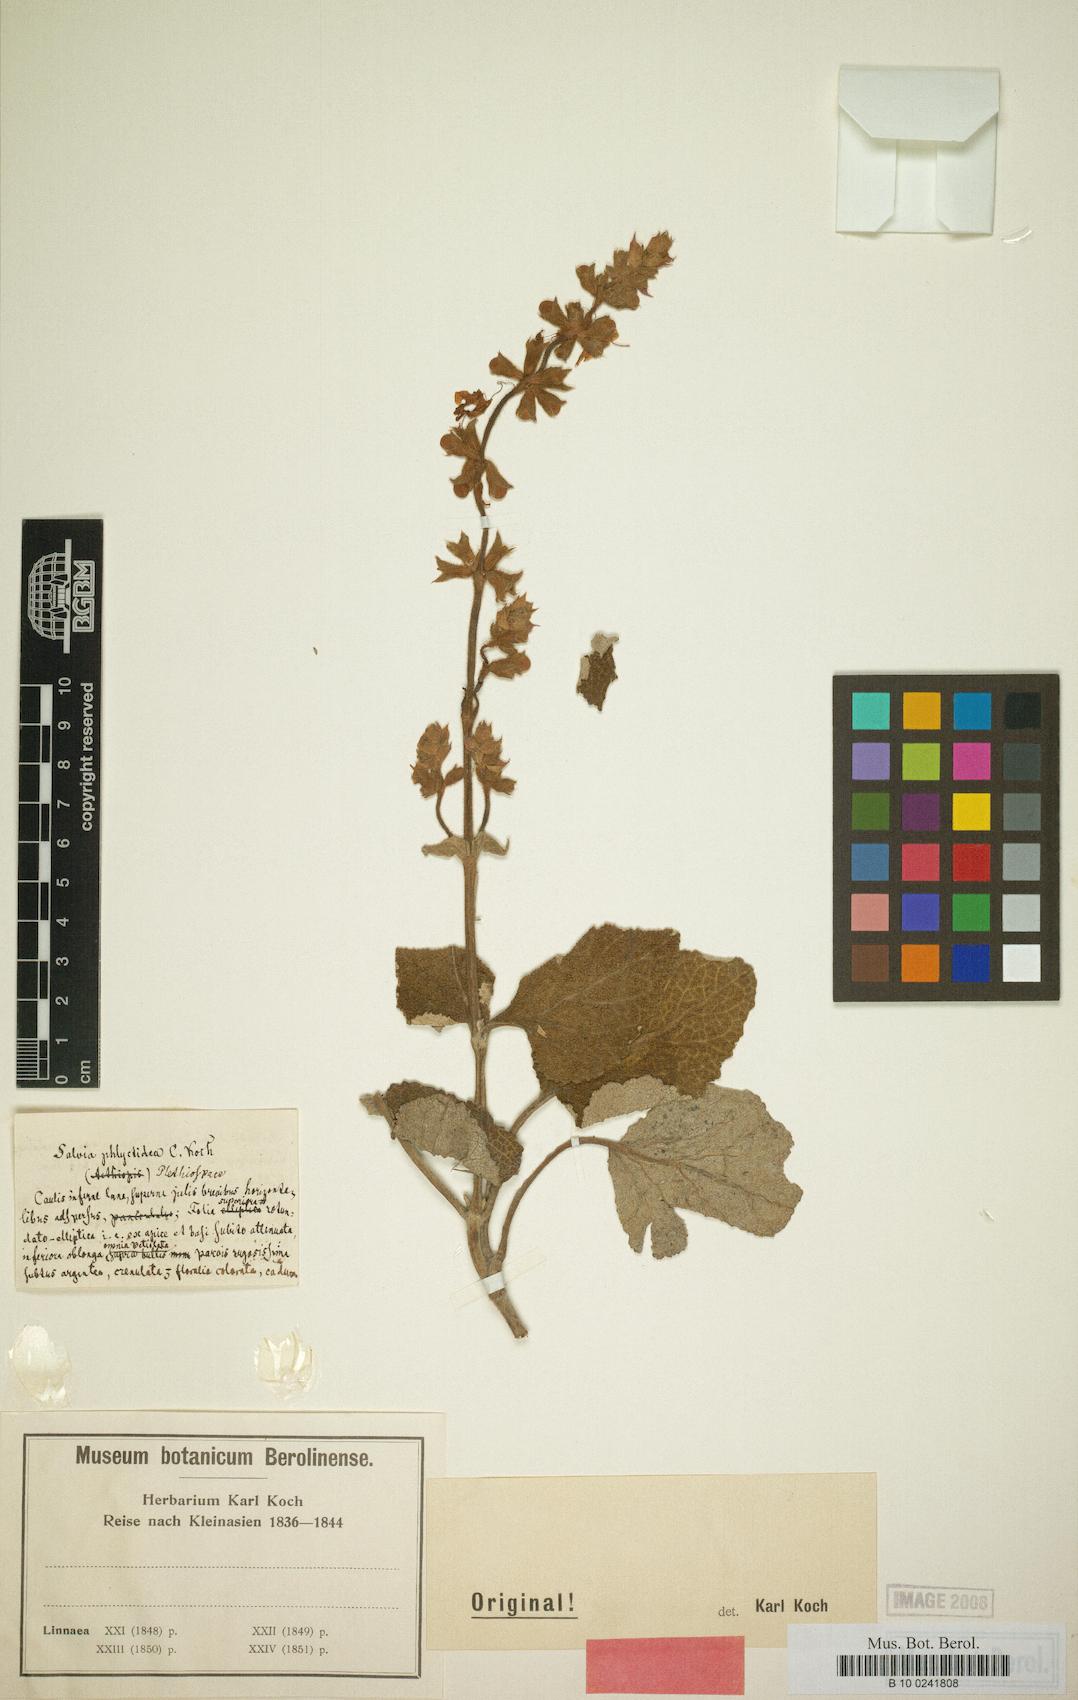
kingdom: Plantae
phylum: Tracheophyta
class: Magnoliopsida
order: Lamiales
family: Lamiaceae
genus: Salvia
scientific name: Salvia phlyctidea
